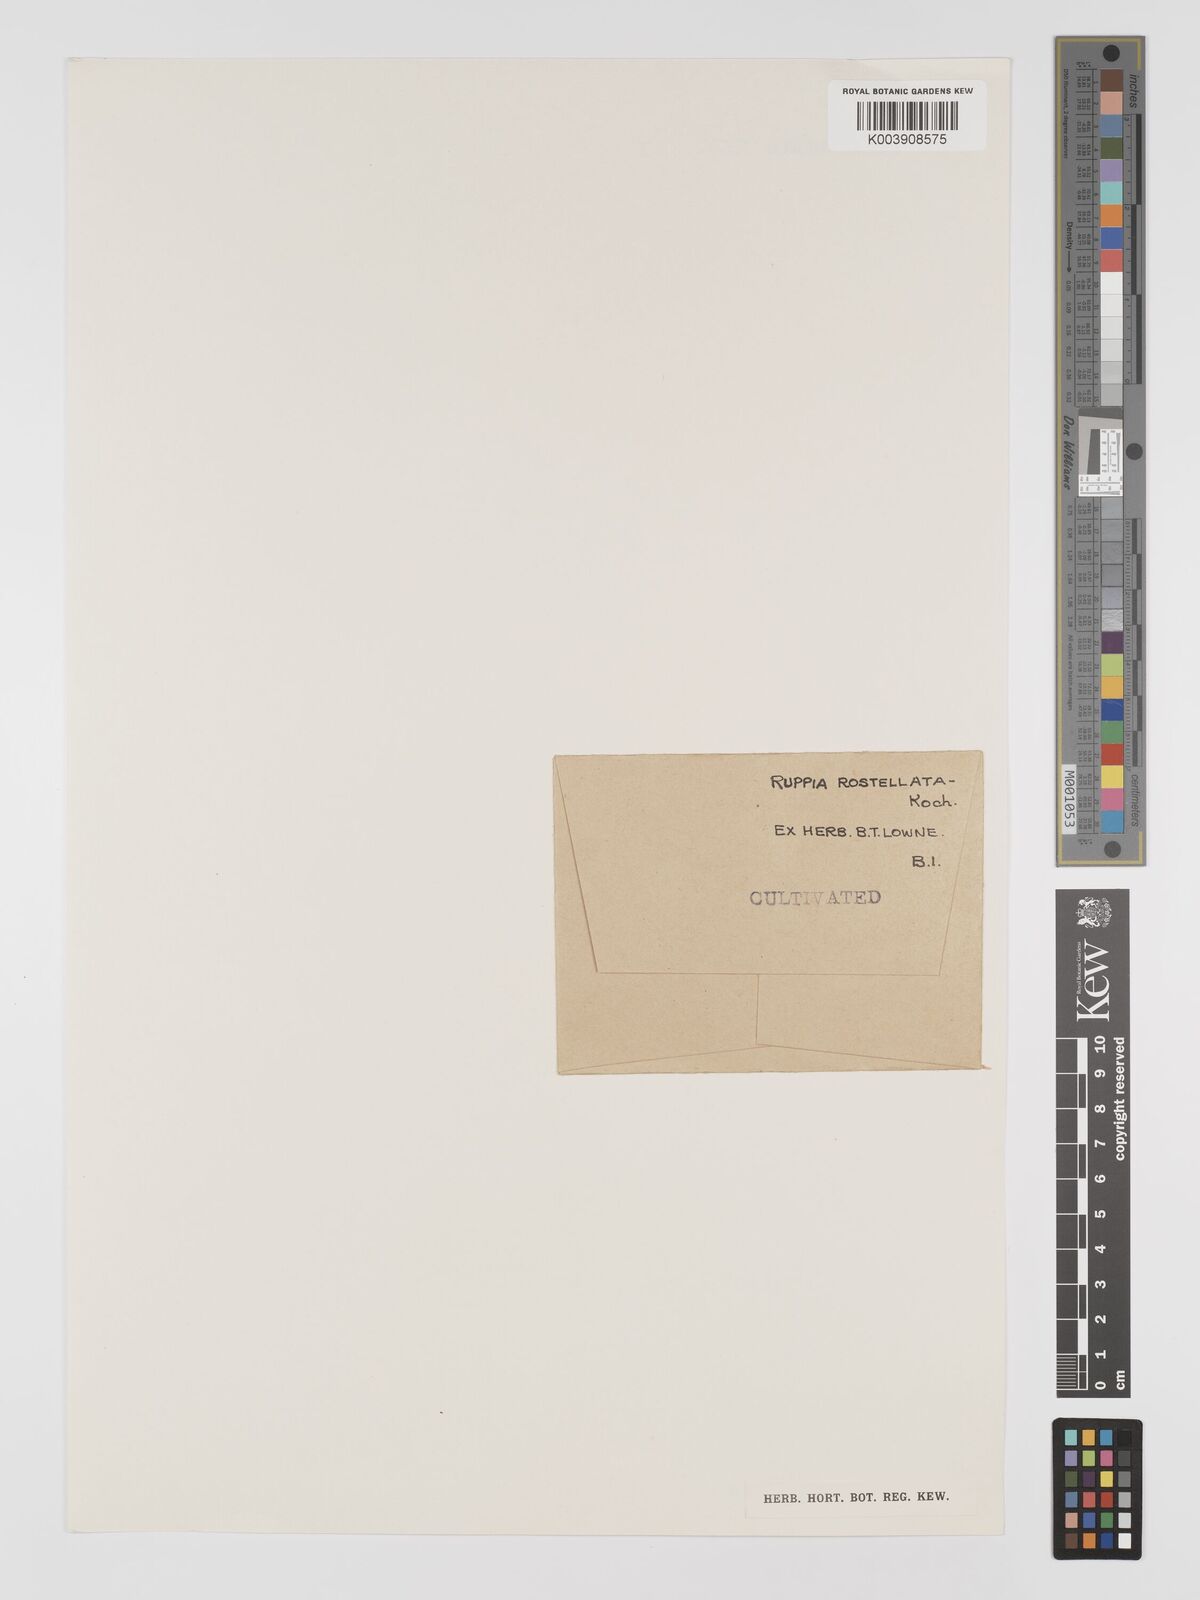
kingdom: Plantae
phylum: Tracheophyta
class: Liliopsida
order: Alismatales
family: Ruppiaceae
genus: Ruppia
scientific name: Ruppia maritima
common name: Beaked tasselweed
